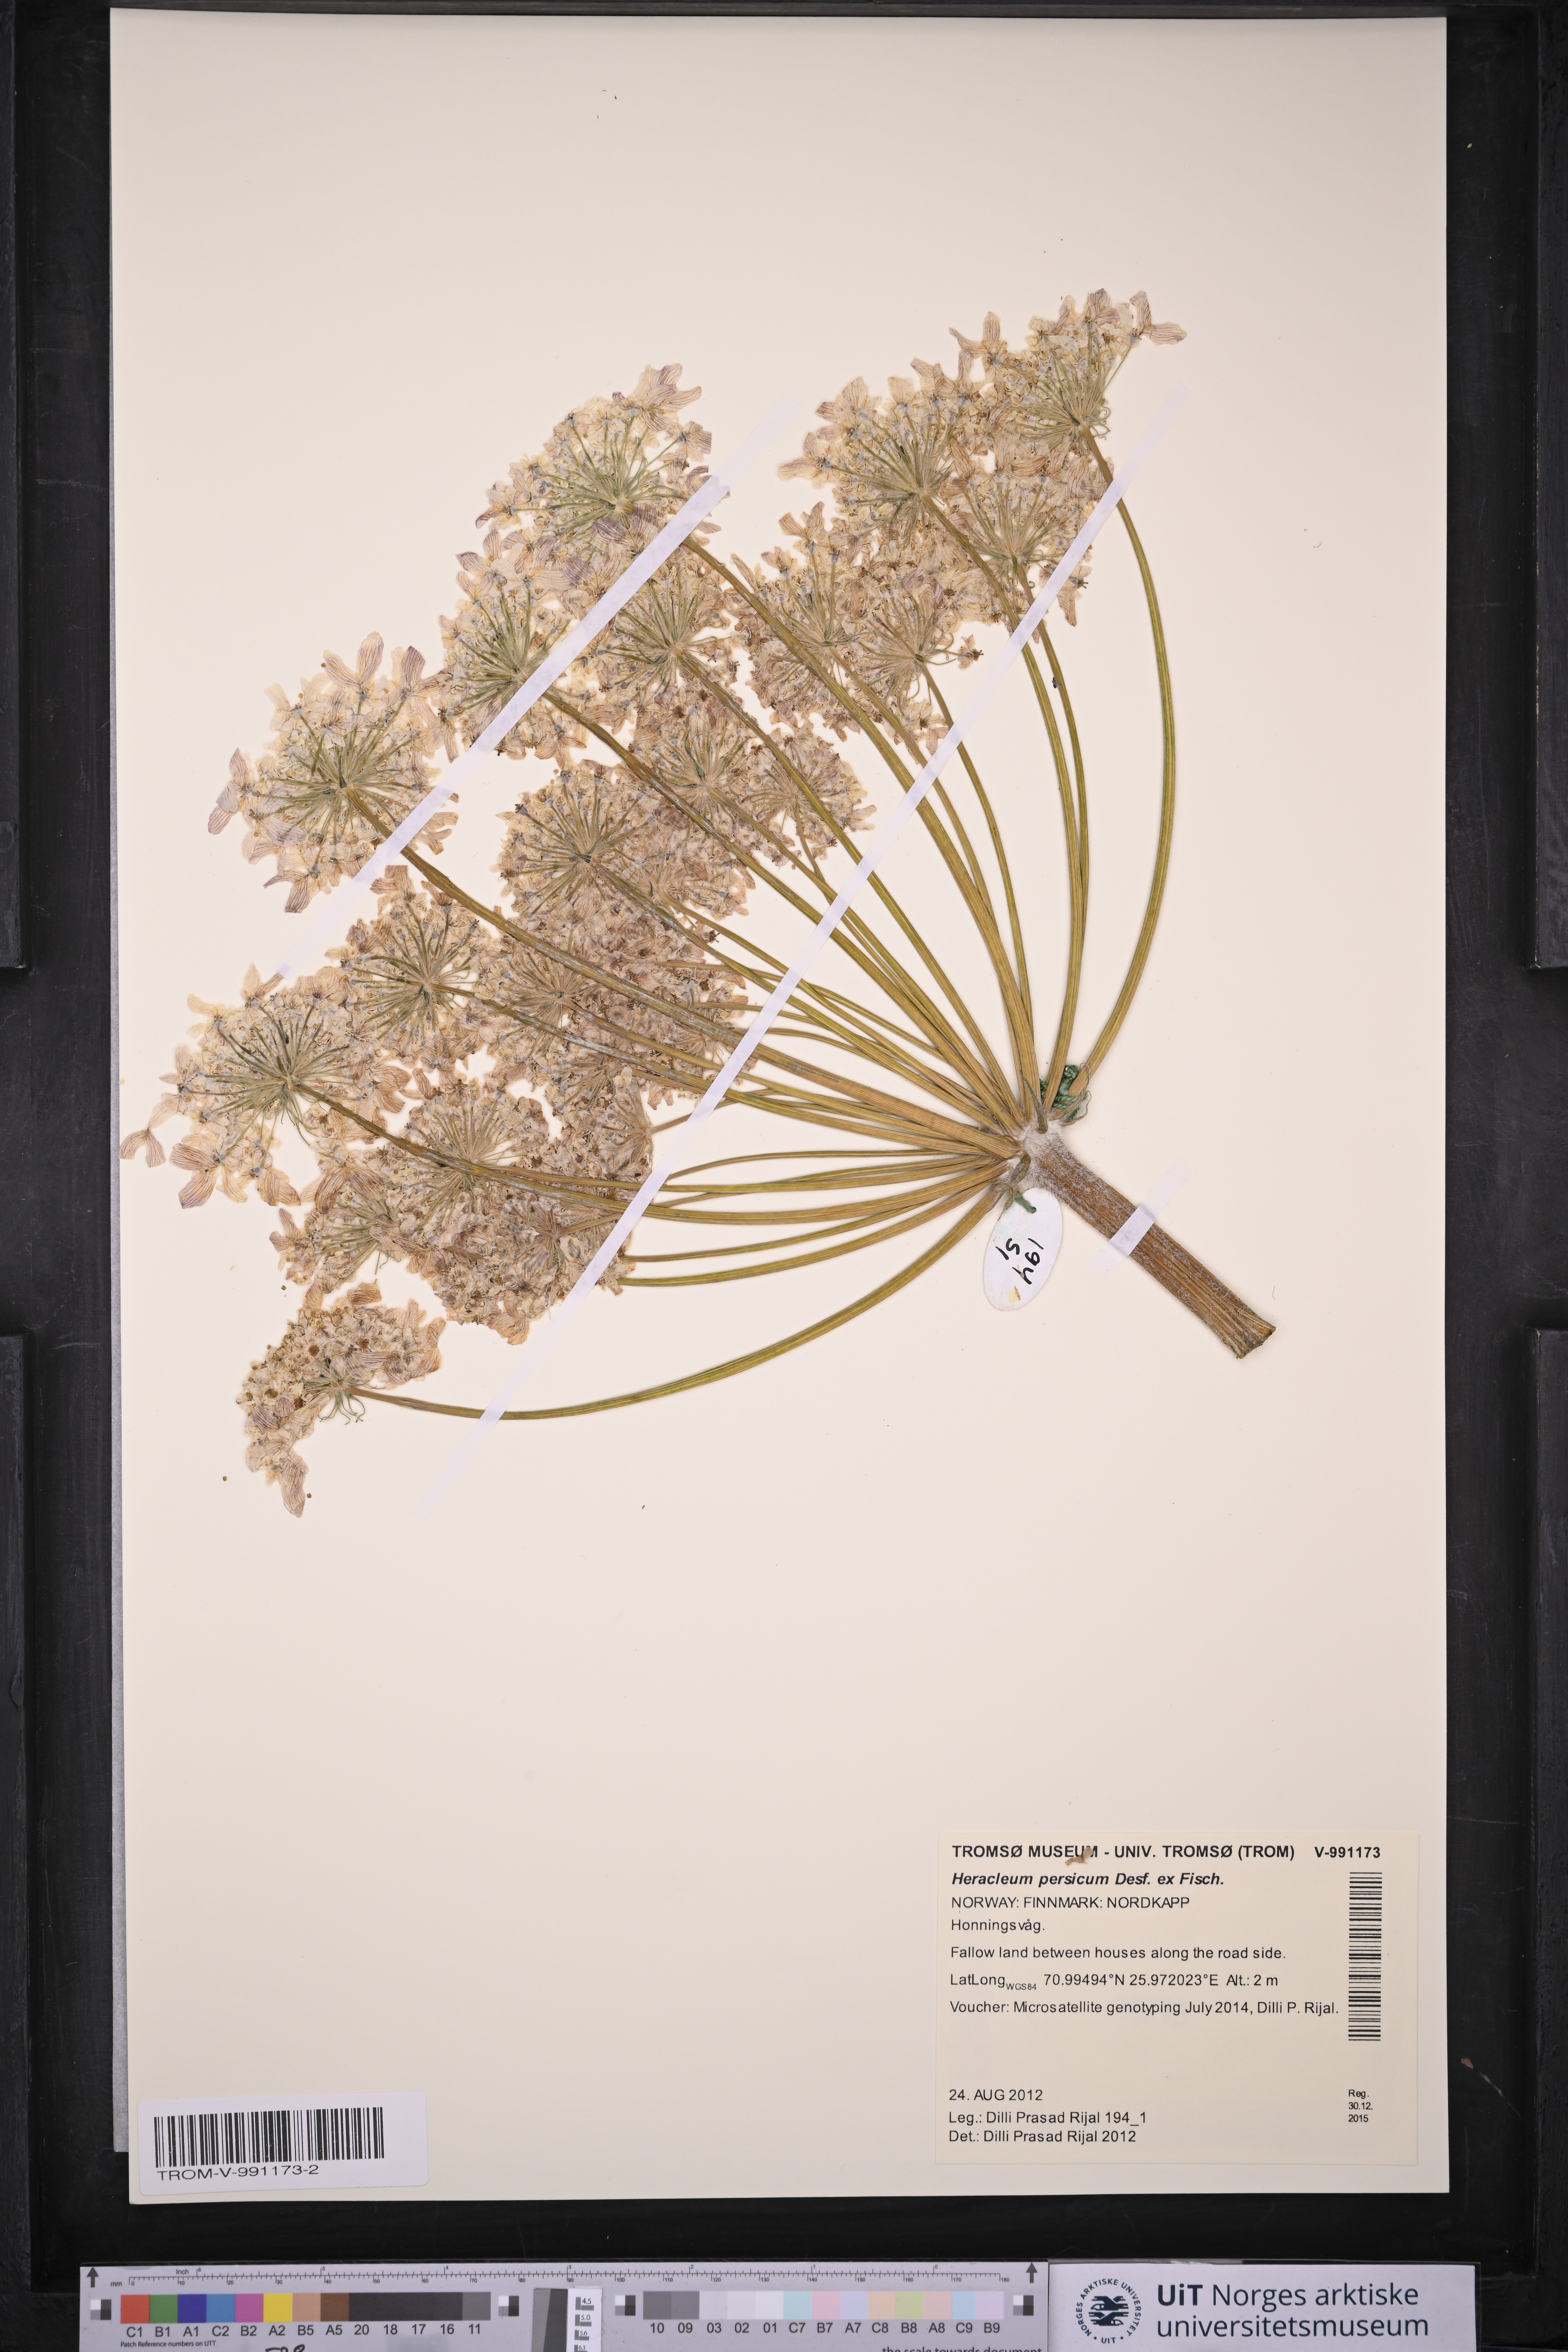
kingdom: Plantae
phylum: Tracheophyta
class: Magnoliopsida
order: Apiales
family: Apiaceae
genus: Heracleum
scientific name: Heracleum persicum
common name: Persian hogweed
